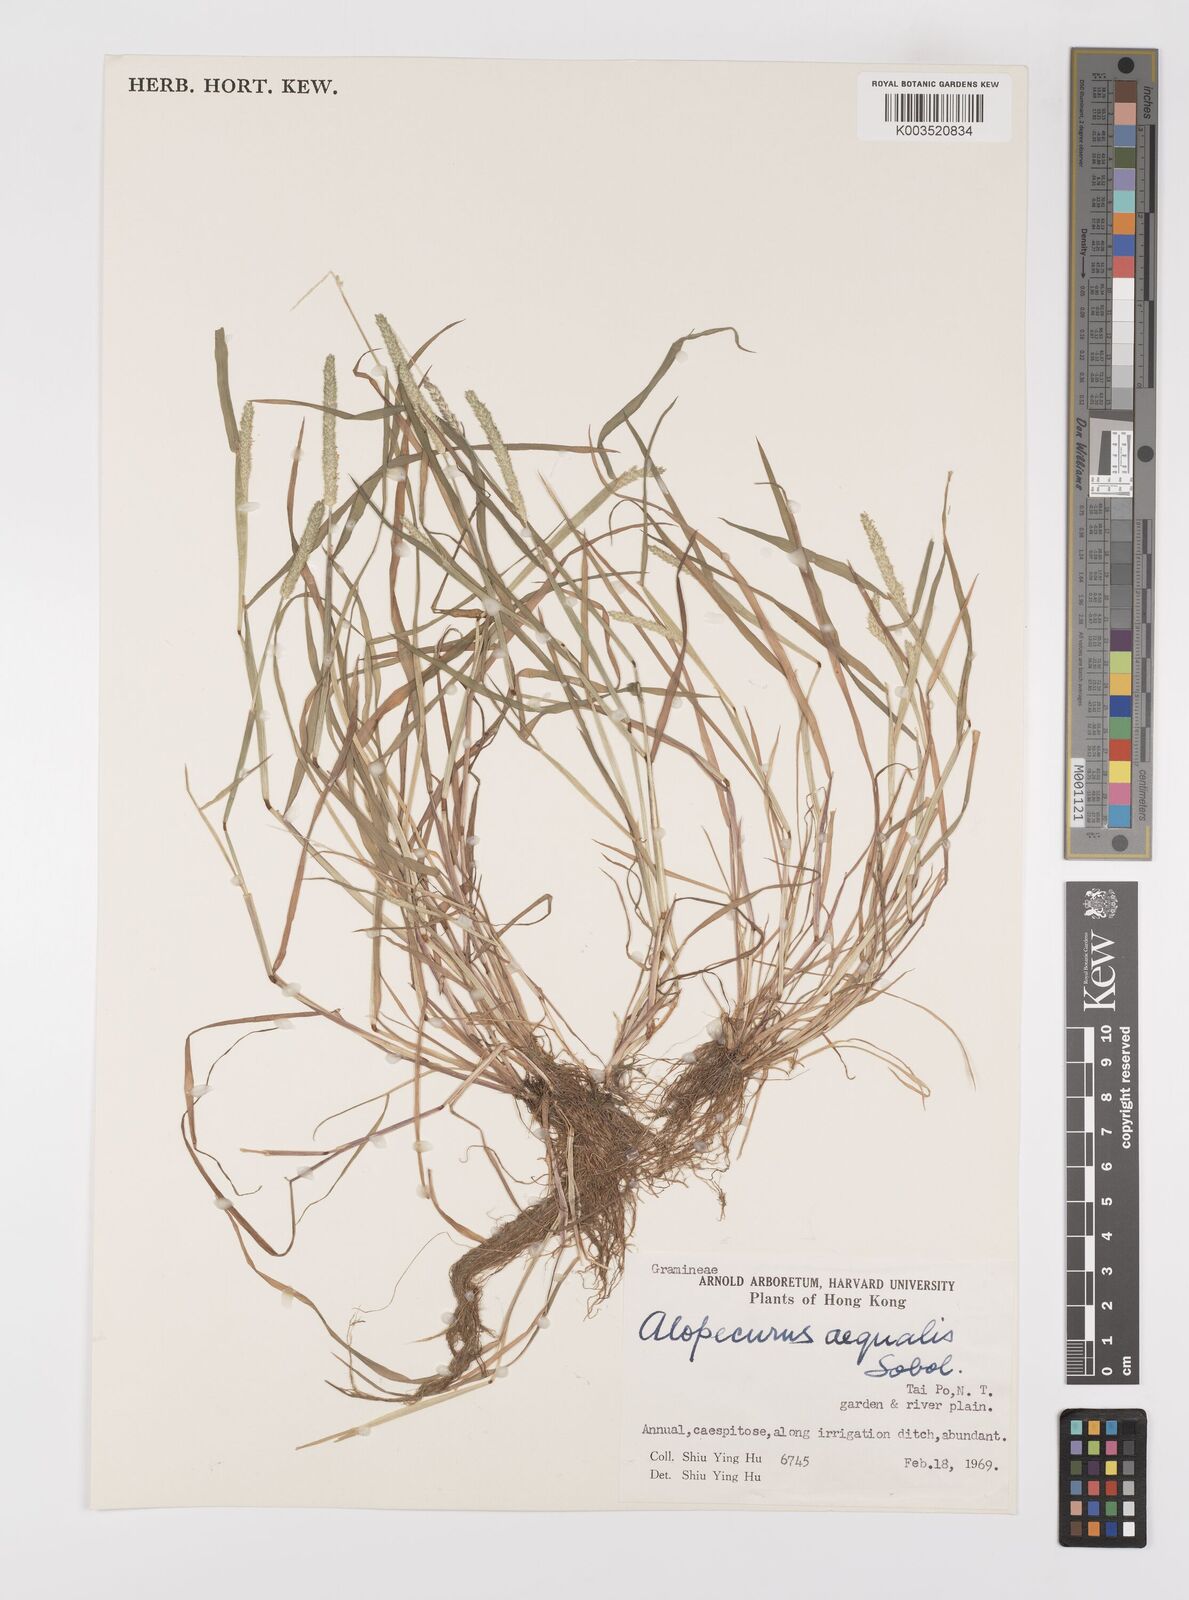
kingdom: Plantae
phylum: Tracheophyta
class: Liliopsida
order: Poales
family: Poaceae
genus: Alopecurus
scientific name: Alopecurus aequalis
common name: Orange foxtail
